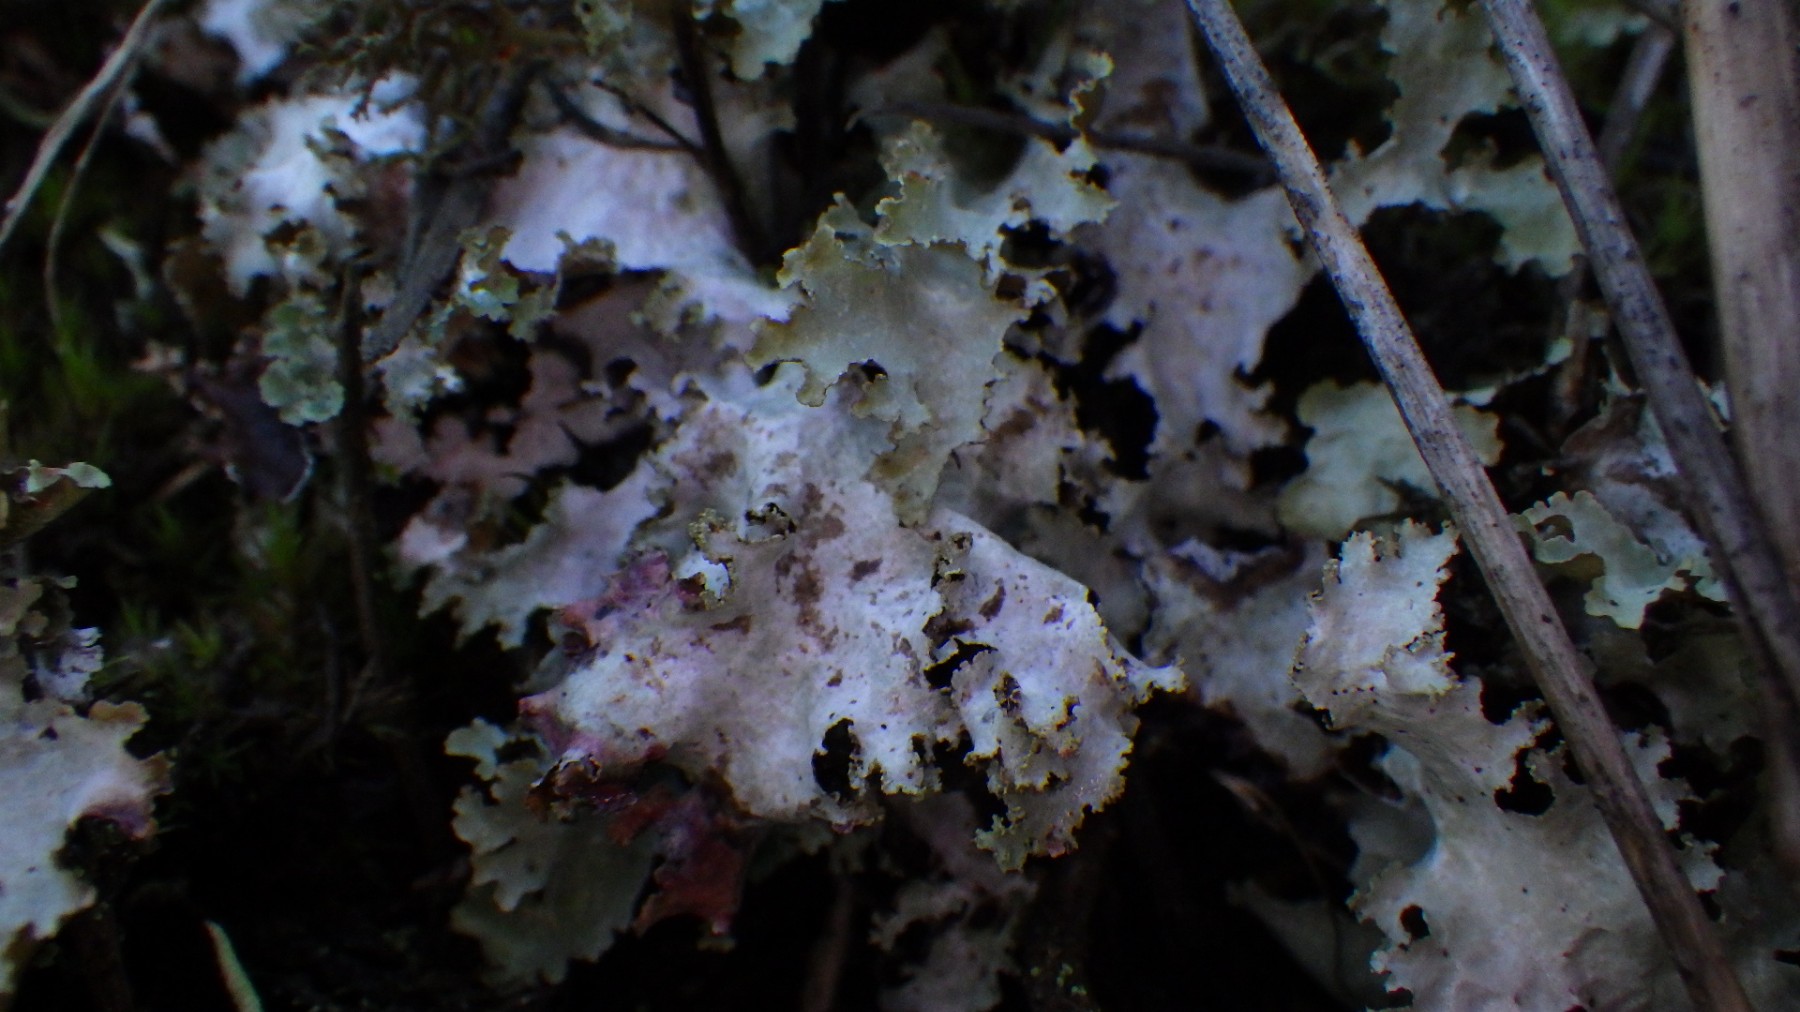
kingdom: Fungi
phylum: Ascomycota
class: Lecanoromycetes
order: Lecanorales
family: Parmeliaceae
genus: Platismatia
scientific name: Platismatia glauca
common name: blågrå papirlav
